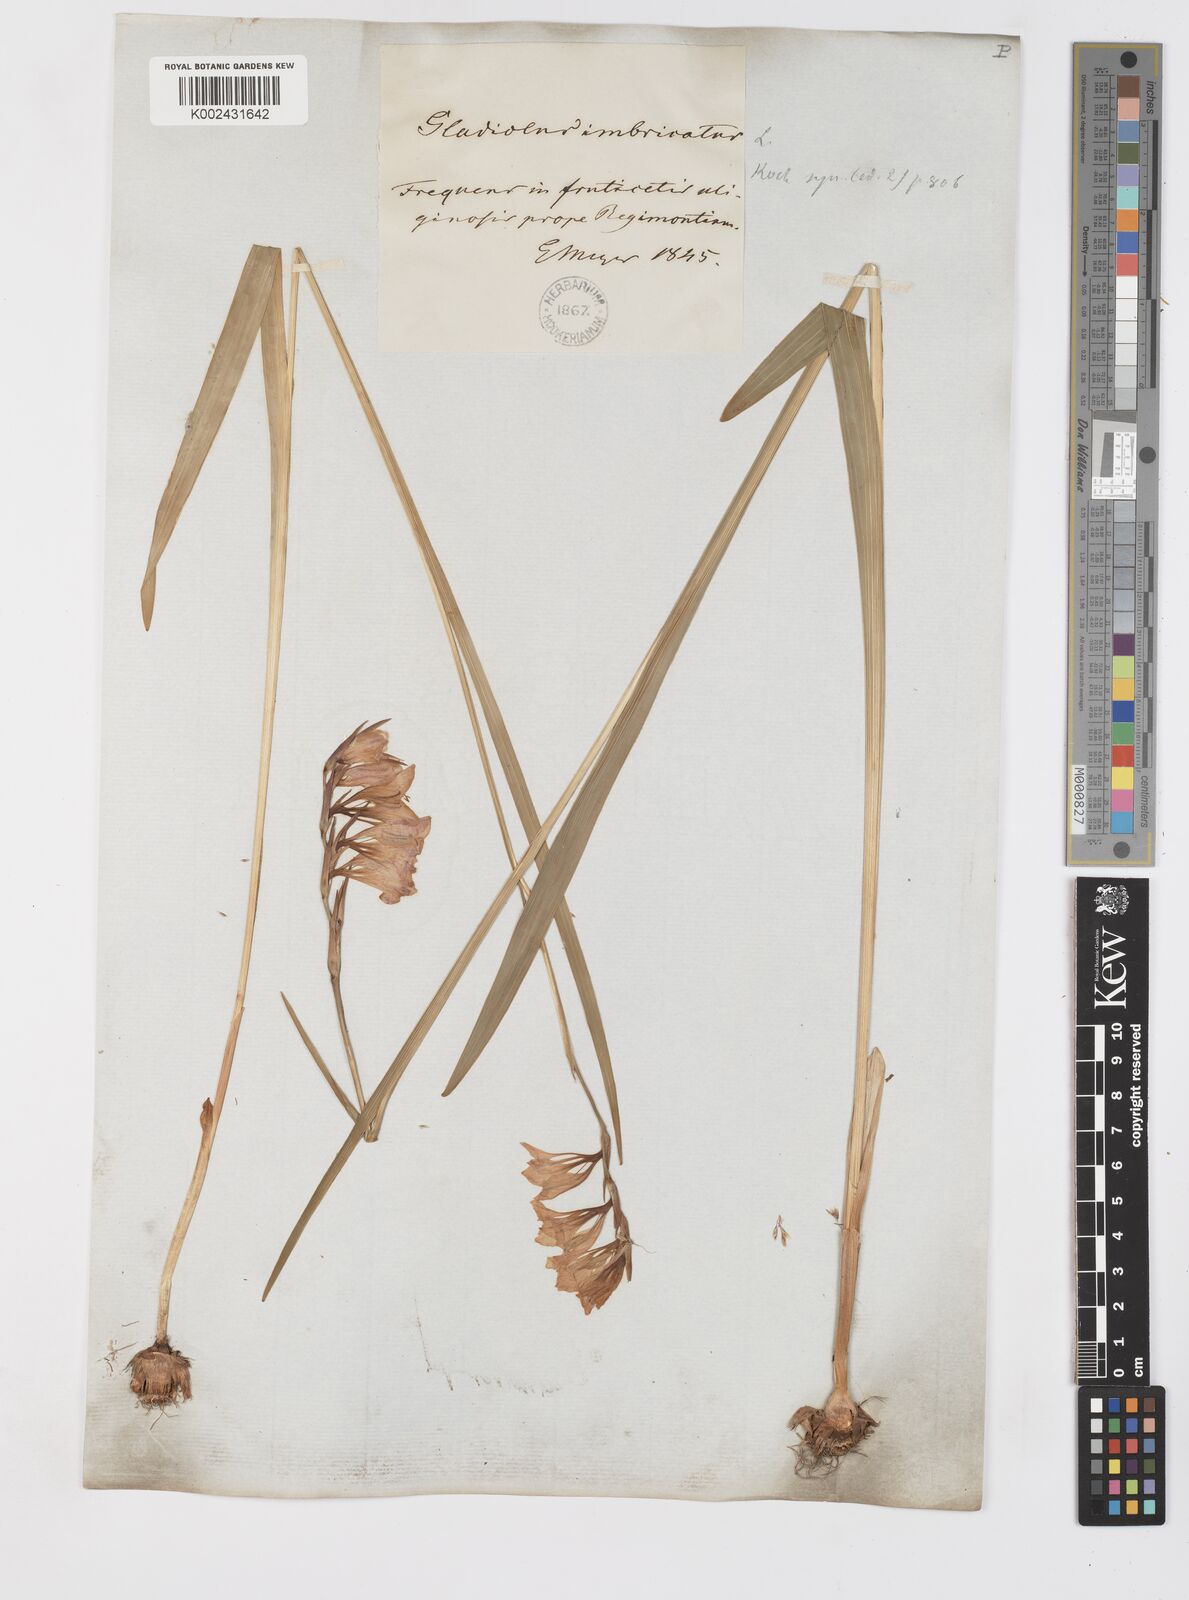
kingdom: Plantae
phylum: Tracheophyta
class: Liliopsida
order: Asparagales
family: Iridaceae
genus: Gladiolus
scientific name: Gladiolus imbricatus
